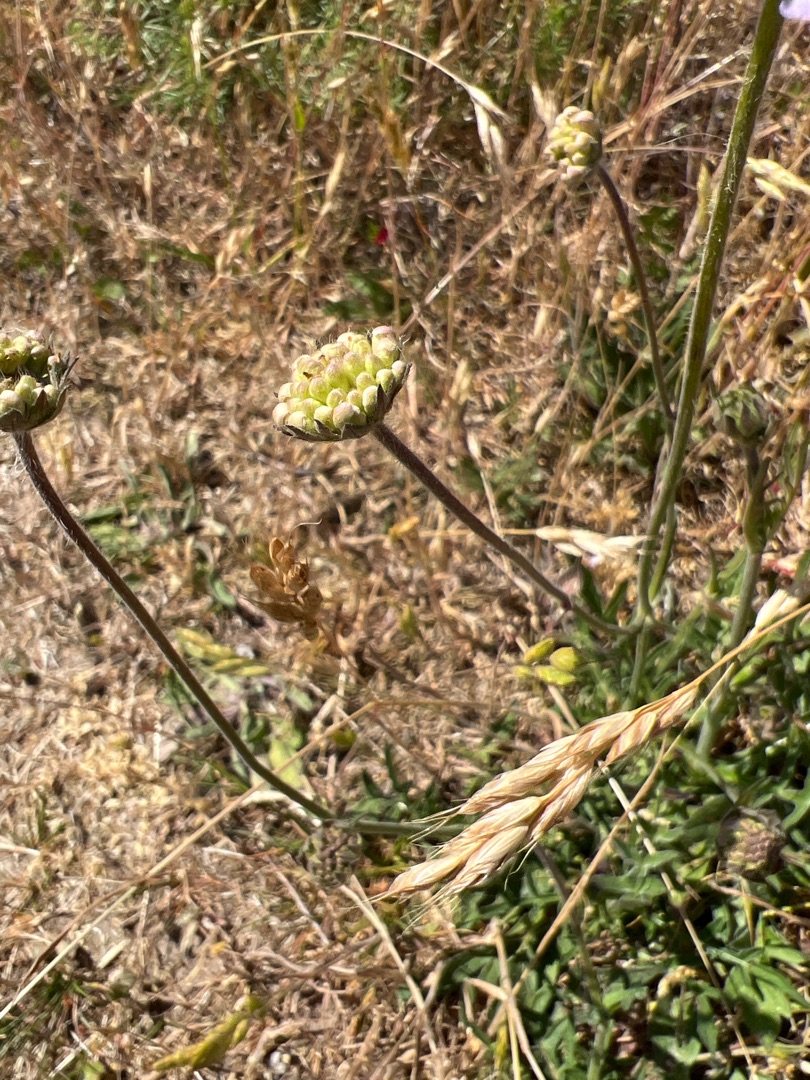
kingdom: Plantae
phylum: Tracheophyta
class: Magnoliopsida
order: Dipsacales
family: Caprifoliaceae
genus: Knautia
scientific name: Knautia arvensis
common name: Blåhat
